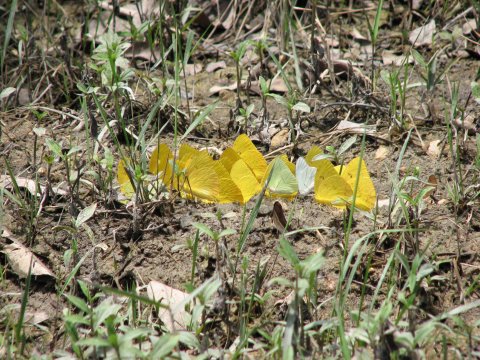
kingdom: Animalia
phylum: Arthropoda
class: Insecta
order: Lepidoptera
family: Pieridae
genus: Rhabdodryas
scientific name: Rhabdodryas trite
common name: Straight-lined Sulphur
